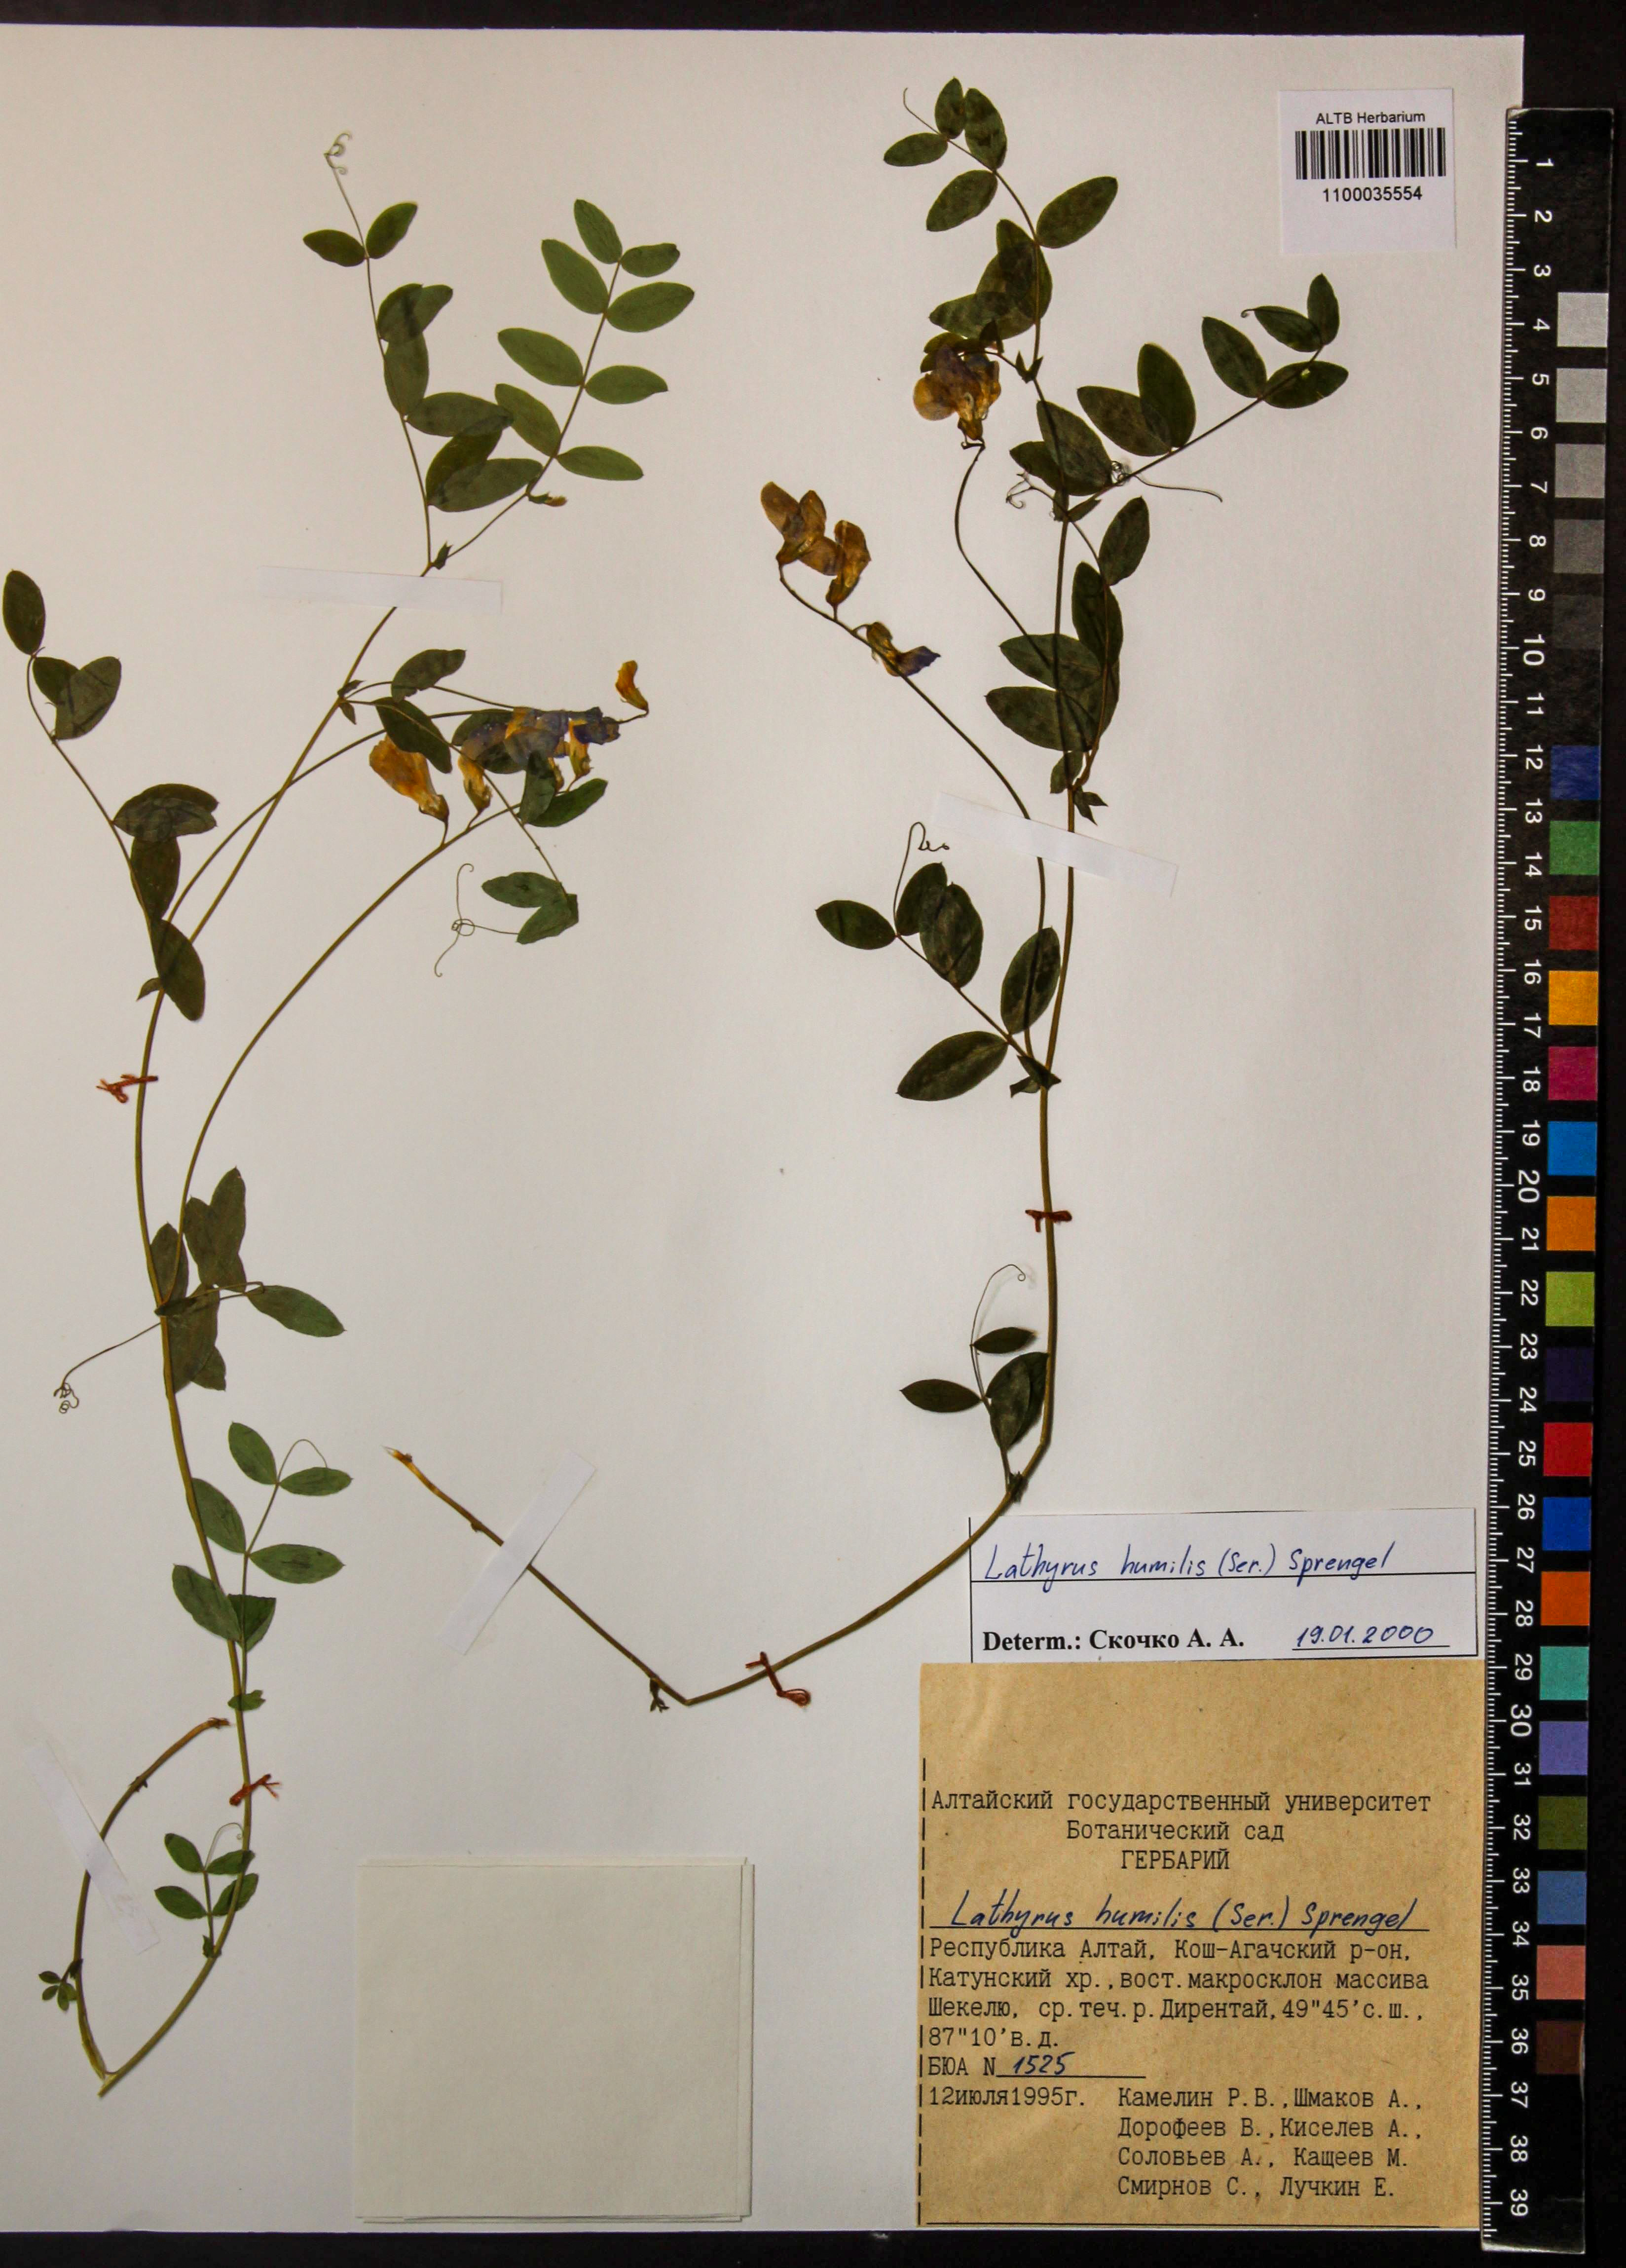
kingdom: Plantae
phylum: Tracheophyta
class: Magnoliopsida
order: Fabales
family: Fabaceae
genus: Lathyrus
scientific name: Lathyrus humilis
